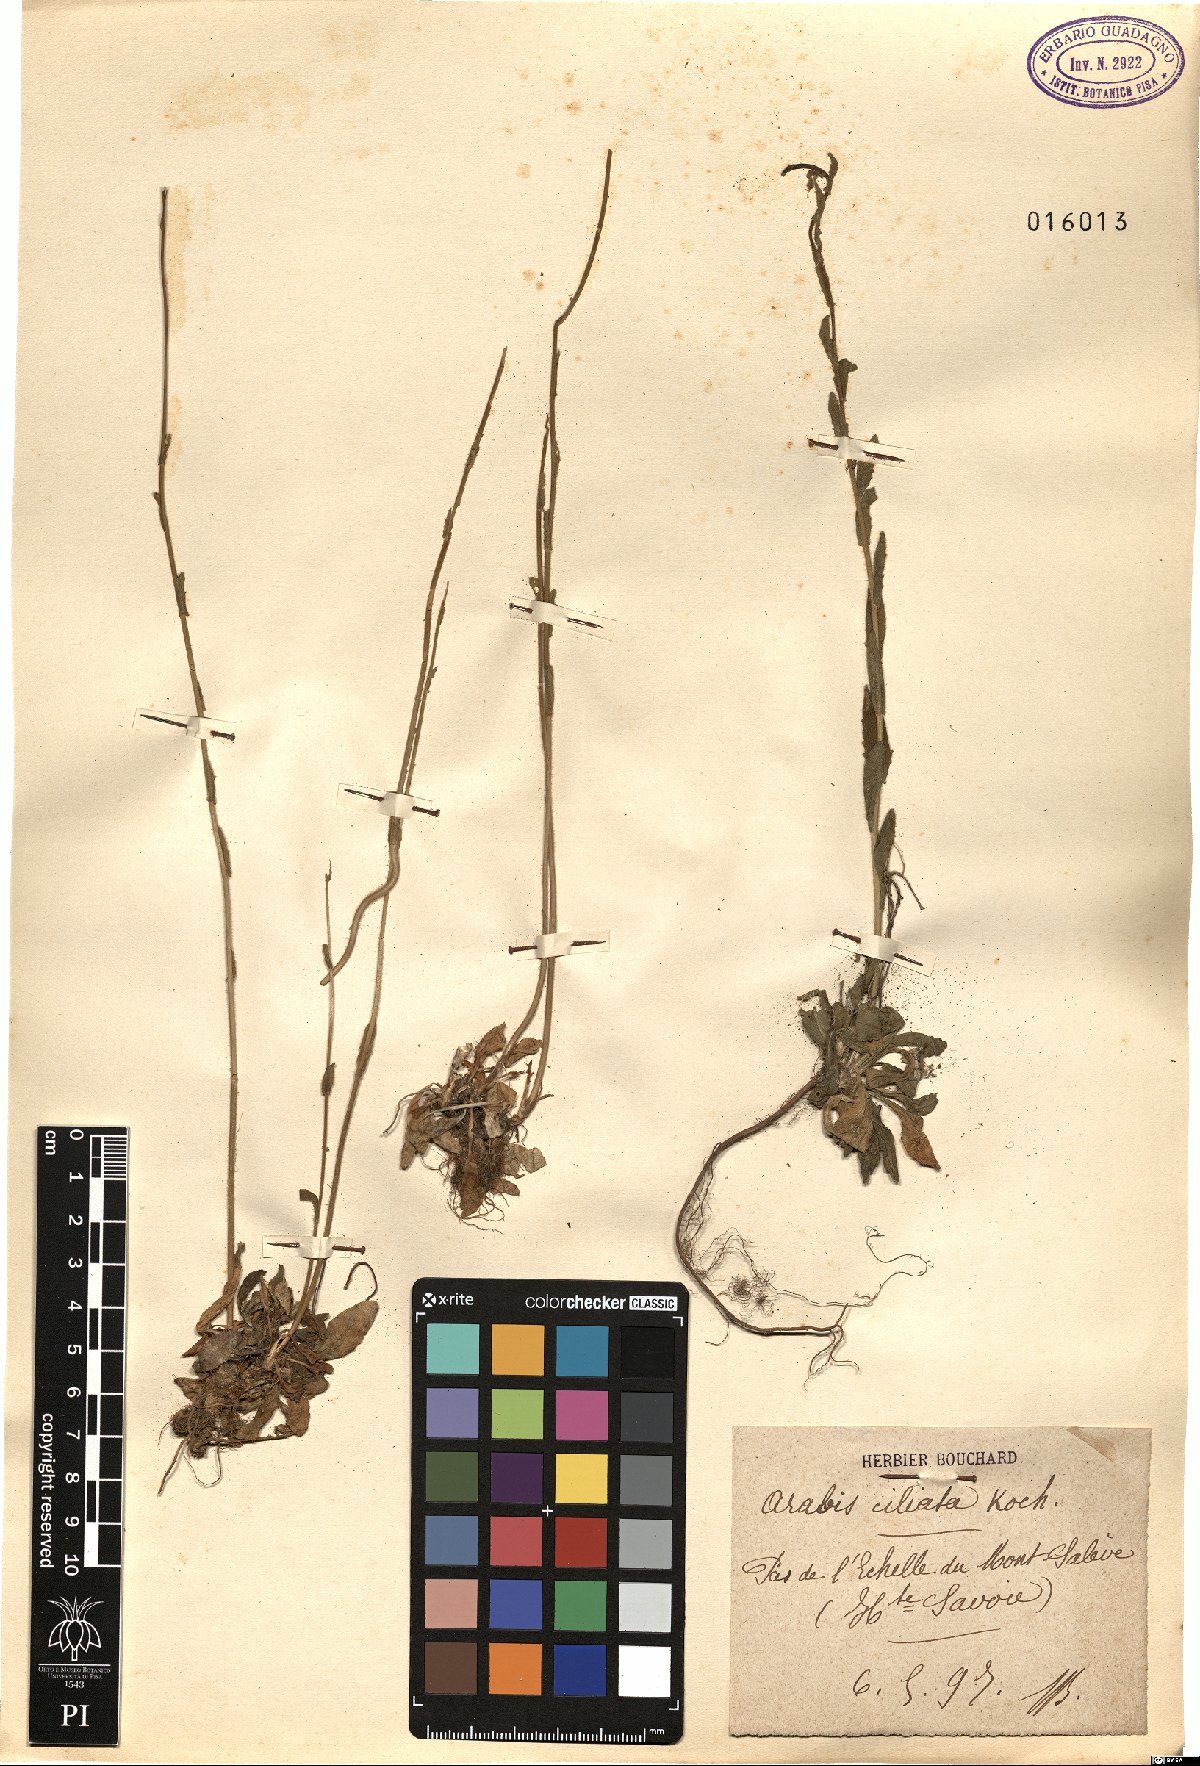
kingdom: Plantae
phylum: Tracheophyta
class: Magnoliopsida
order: Brassicales
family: Brassicaceae
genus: Arabis
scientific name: Arabis ciliata
